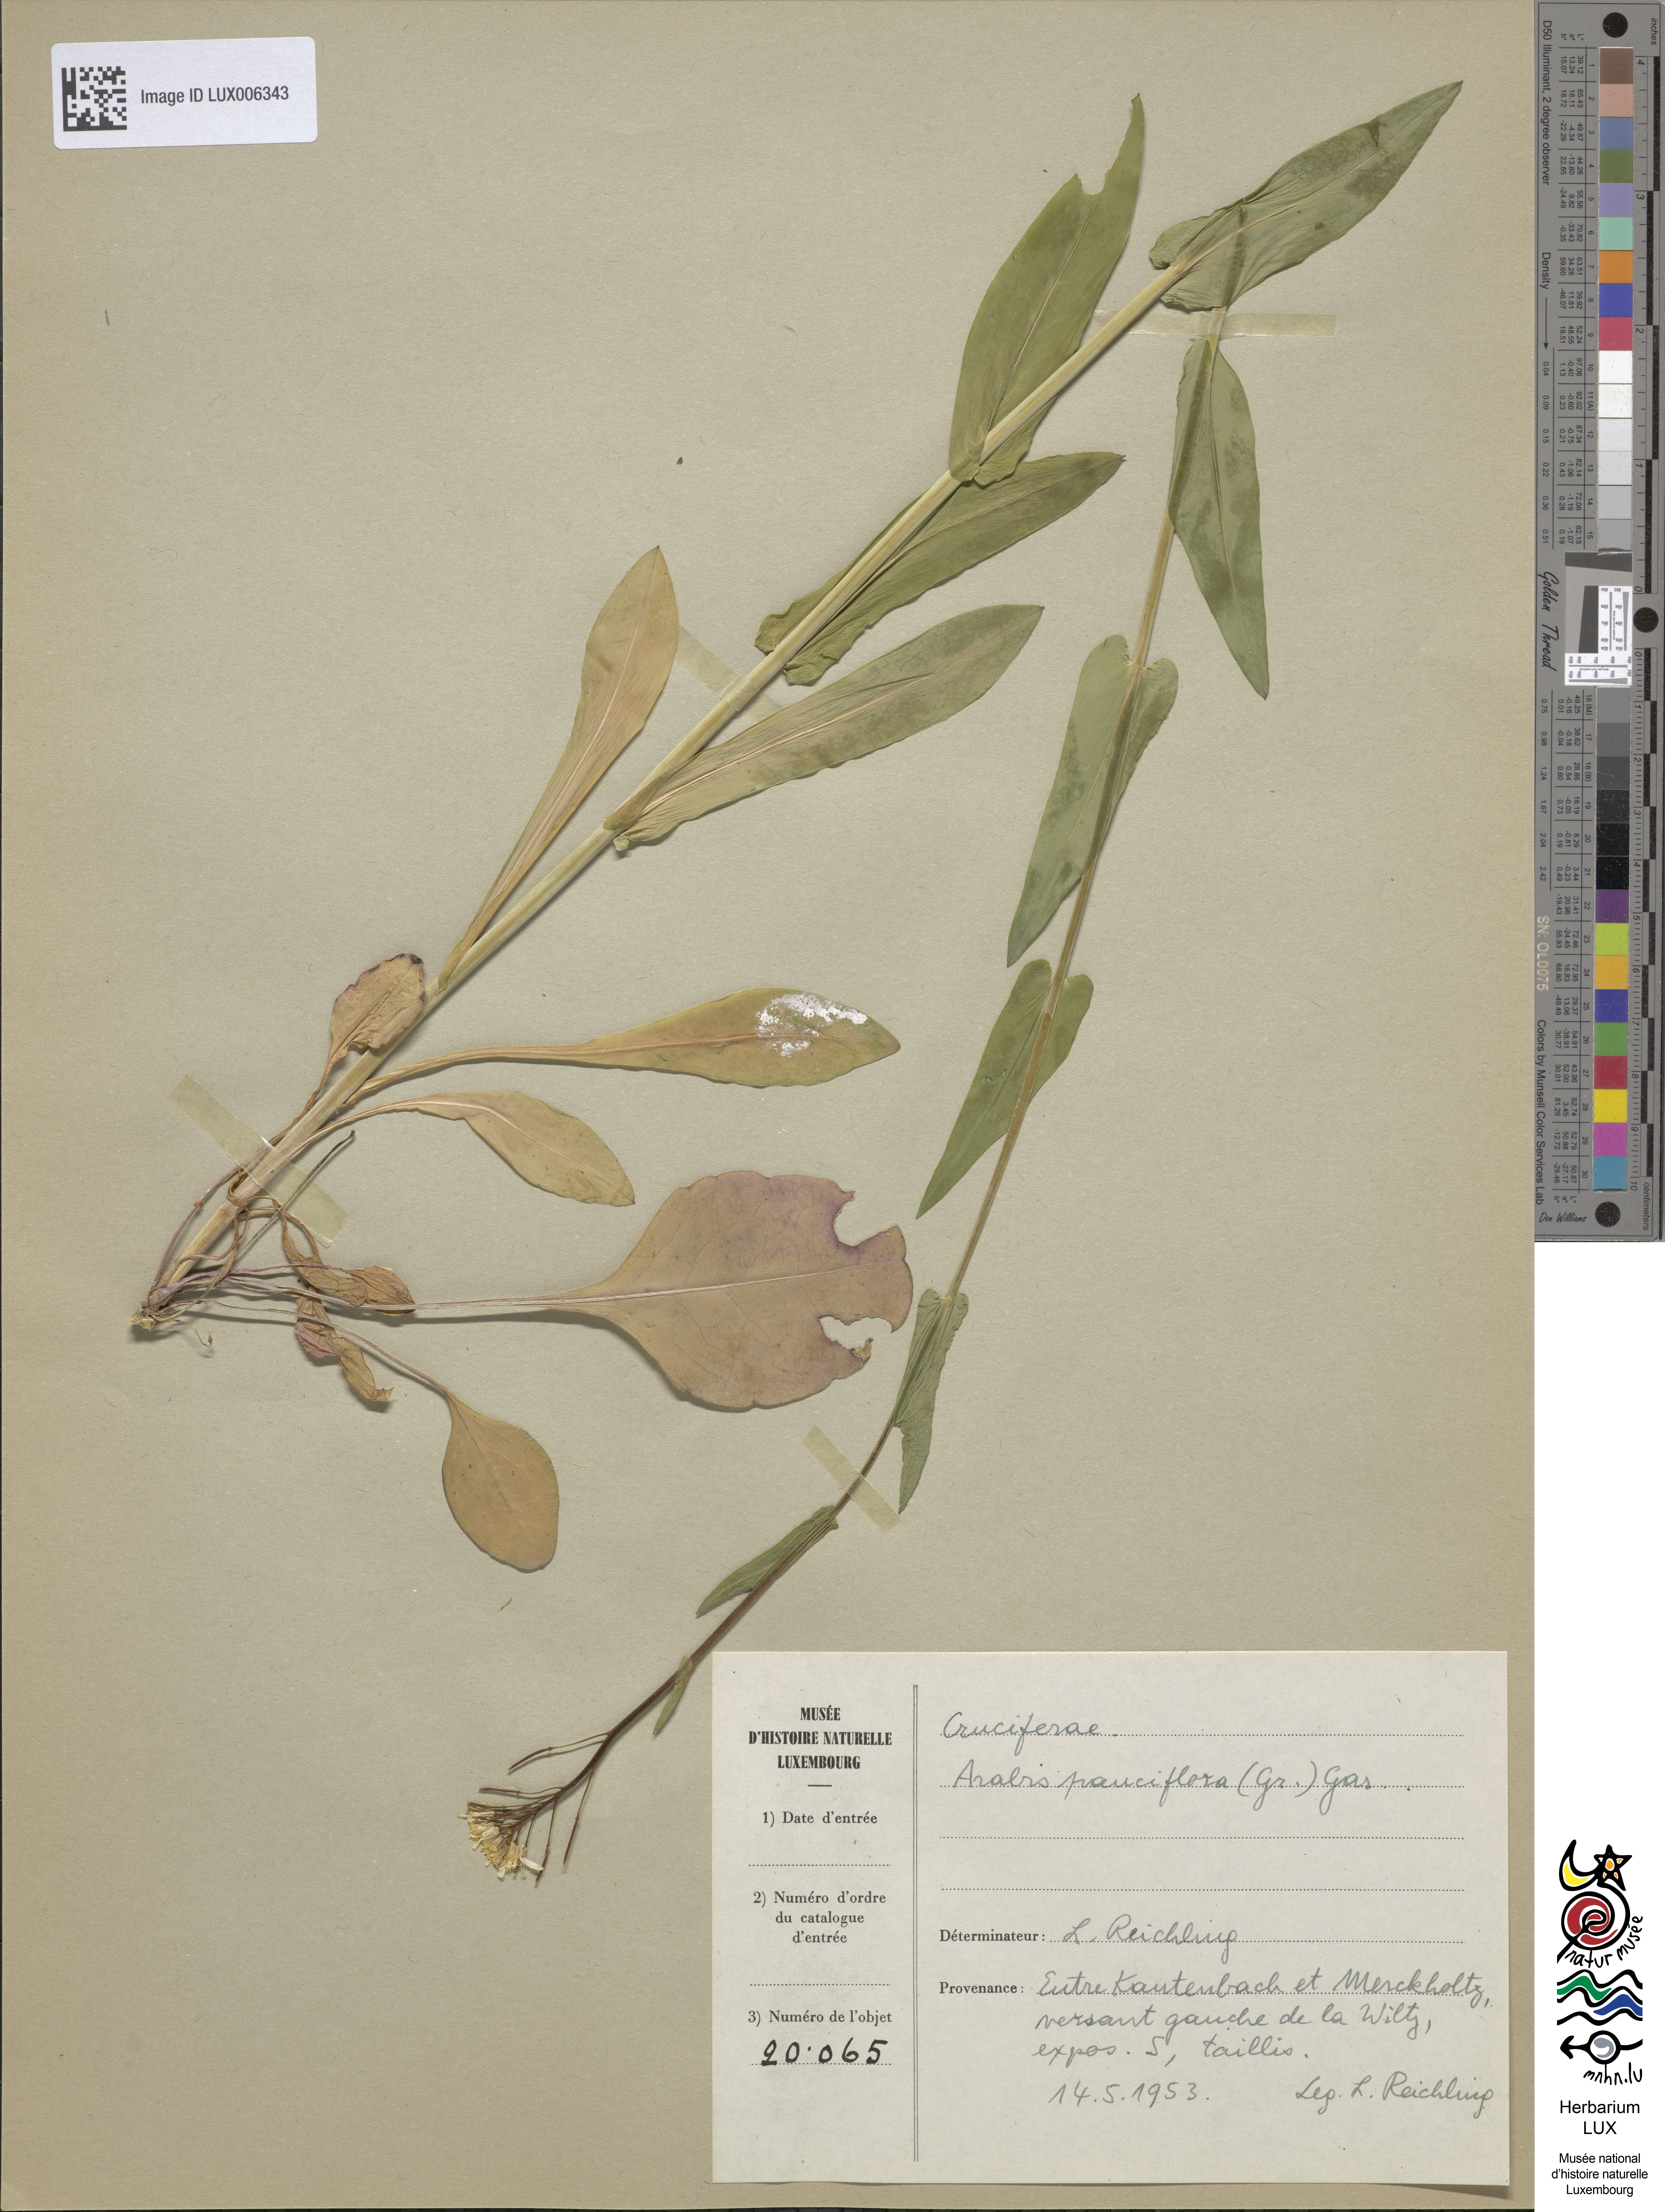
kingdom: Plantae
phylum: Tracheophyta
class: Magnoliopsida
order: Brassicales
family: Brassicaceae
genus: Fourraea
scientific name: Fourraea alpina
